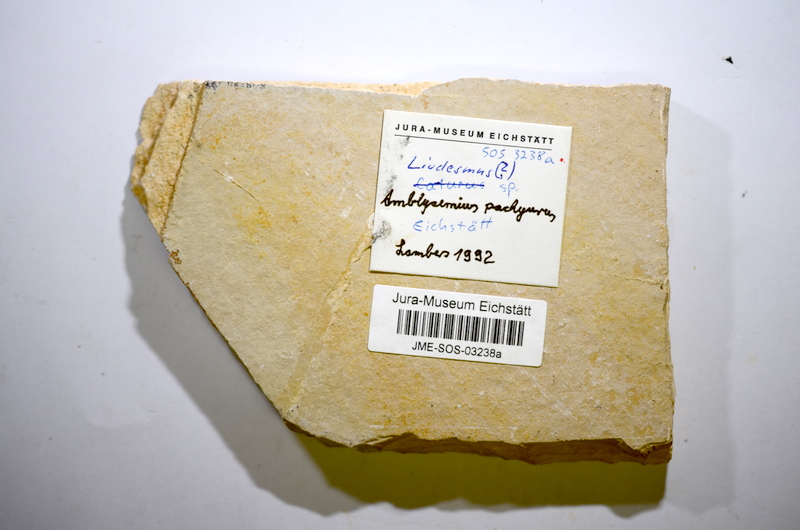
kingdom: Animalia
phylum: Chordata
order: Amiiformes
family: Caturidae
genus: Amblysemius
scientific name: Amblysemius pachyurus
